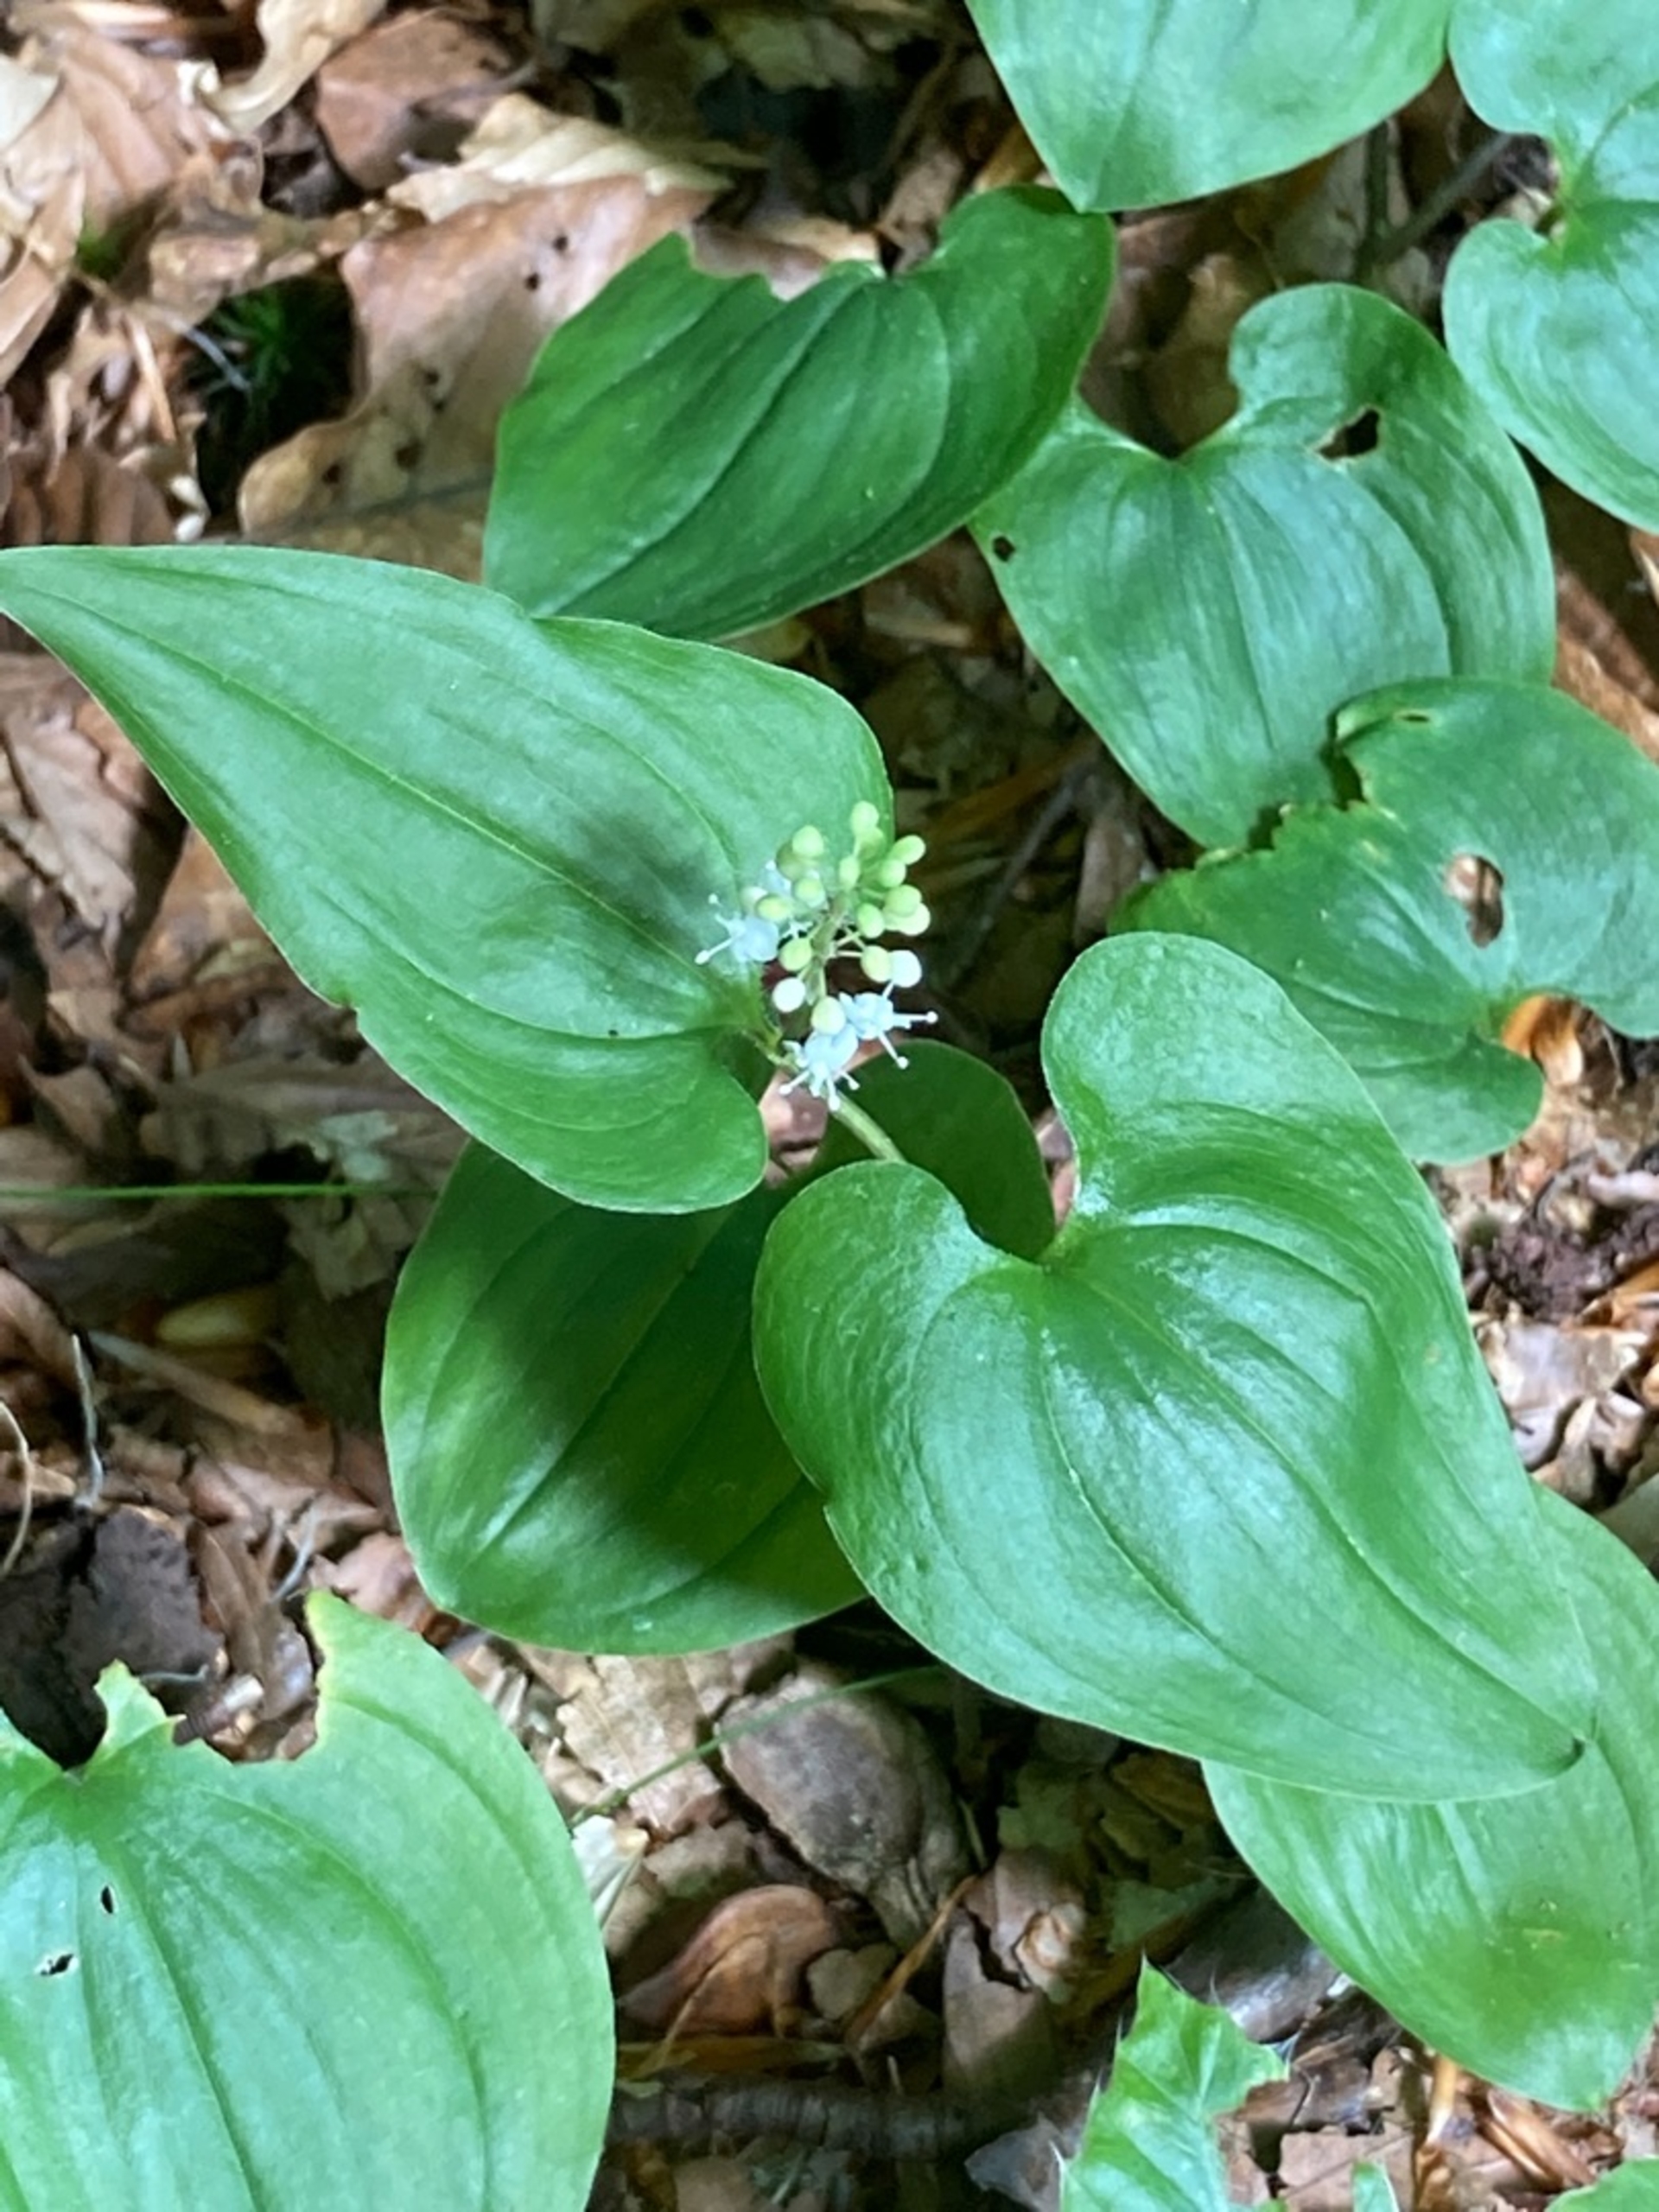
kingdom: Plantae
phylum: Tracheophyta
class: Liliopsida
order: Asparagales
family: Asparagaceae
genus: Maianthemum
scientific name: Maianthemum bifolium
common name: Majblomst
